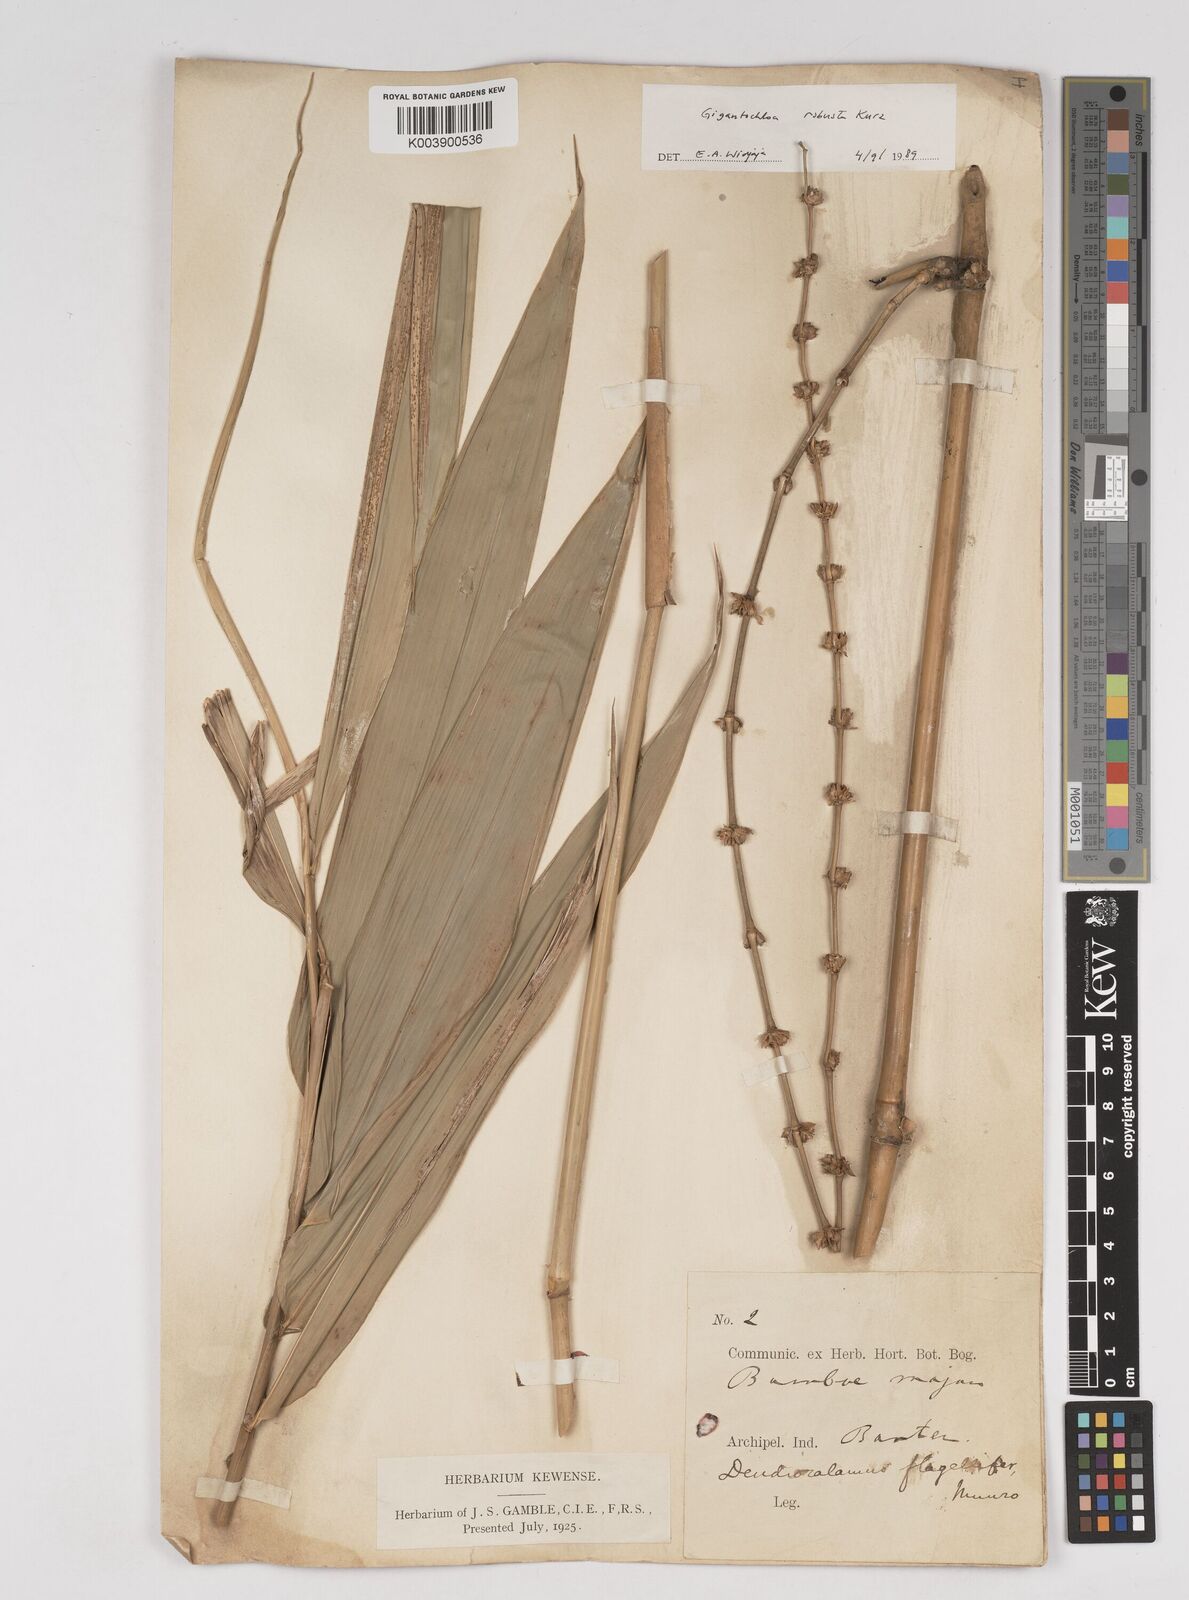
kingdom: Plantae
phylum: Tracheophyta
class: Liliopsida
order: Poales
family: Poaceae
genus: Gigantochloa
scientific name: Gigantochloa robusta
